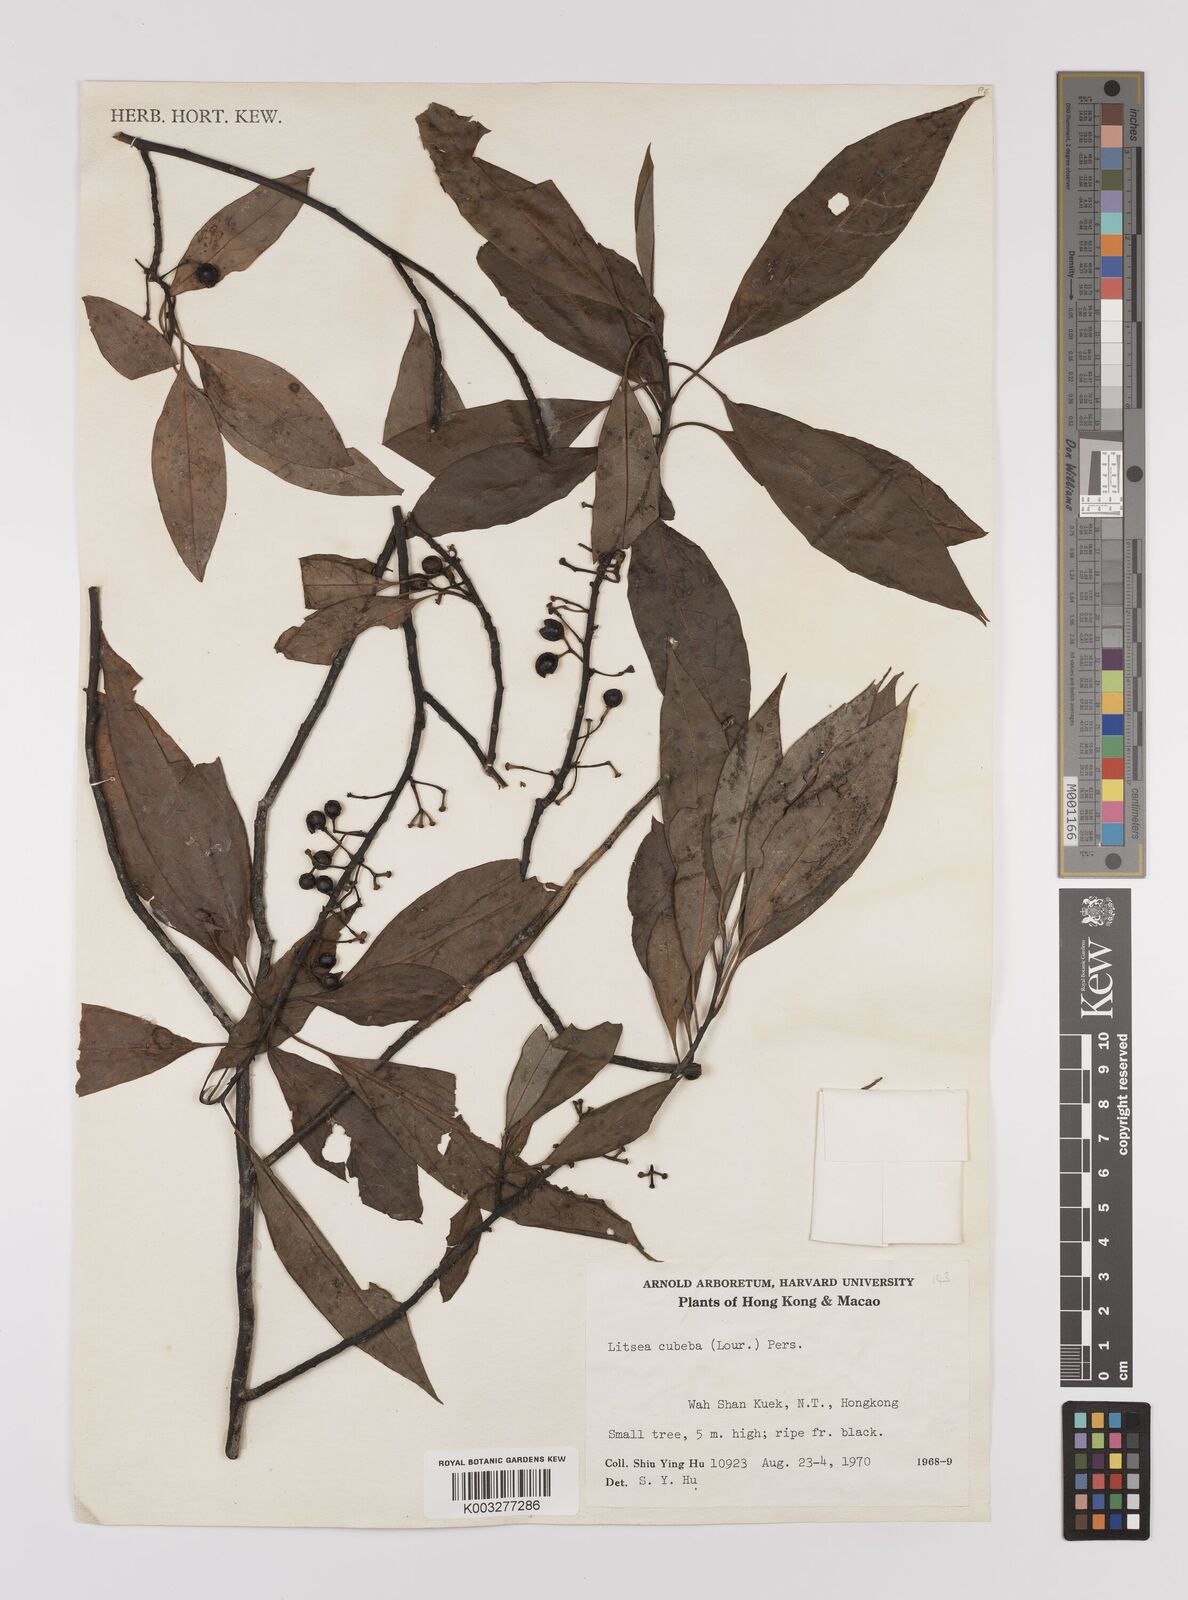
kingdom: Plantae
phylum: Tracheophyta
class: Magnoliopsida
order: Laurales
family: Lauraceae
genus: Litsea
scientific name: Litsea cubeba
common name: Mountain-pepper
